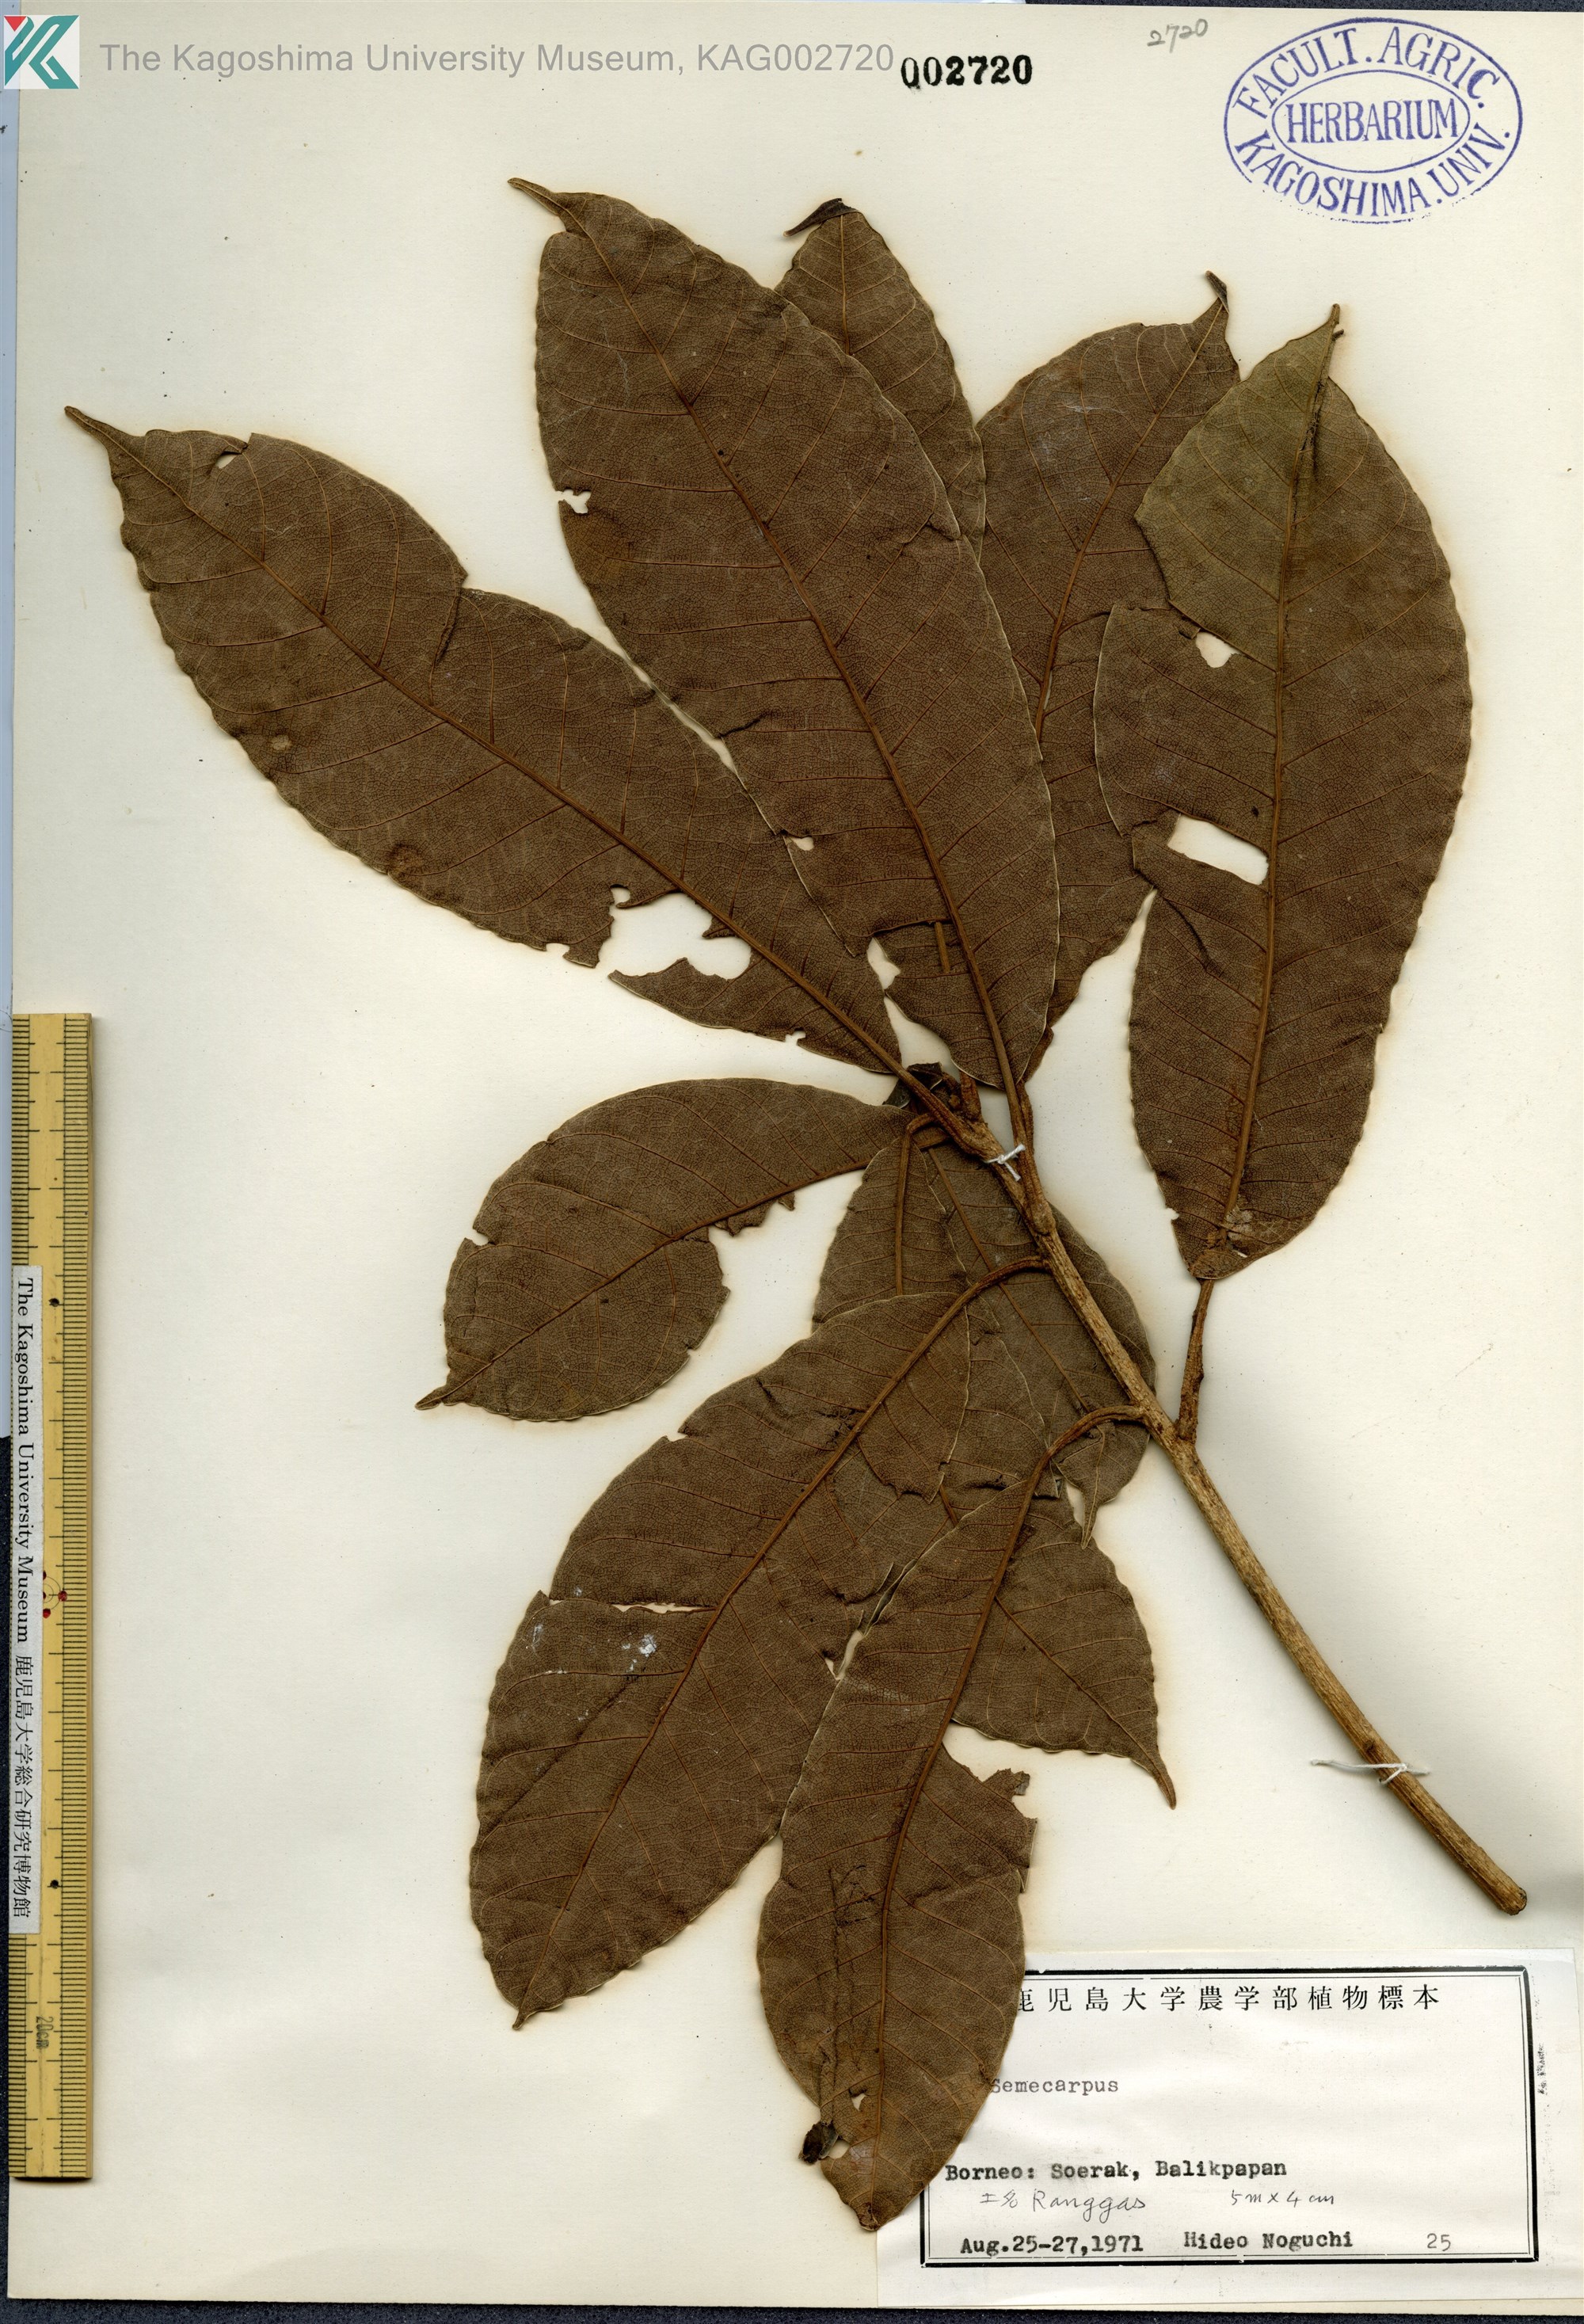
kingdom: Plantae
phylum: Tracheophyta
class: Magnoliopsida
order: Sapindales
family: Anacardiaceae
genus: Semecarpus
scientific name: Semecarpus
